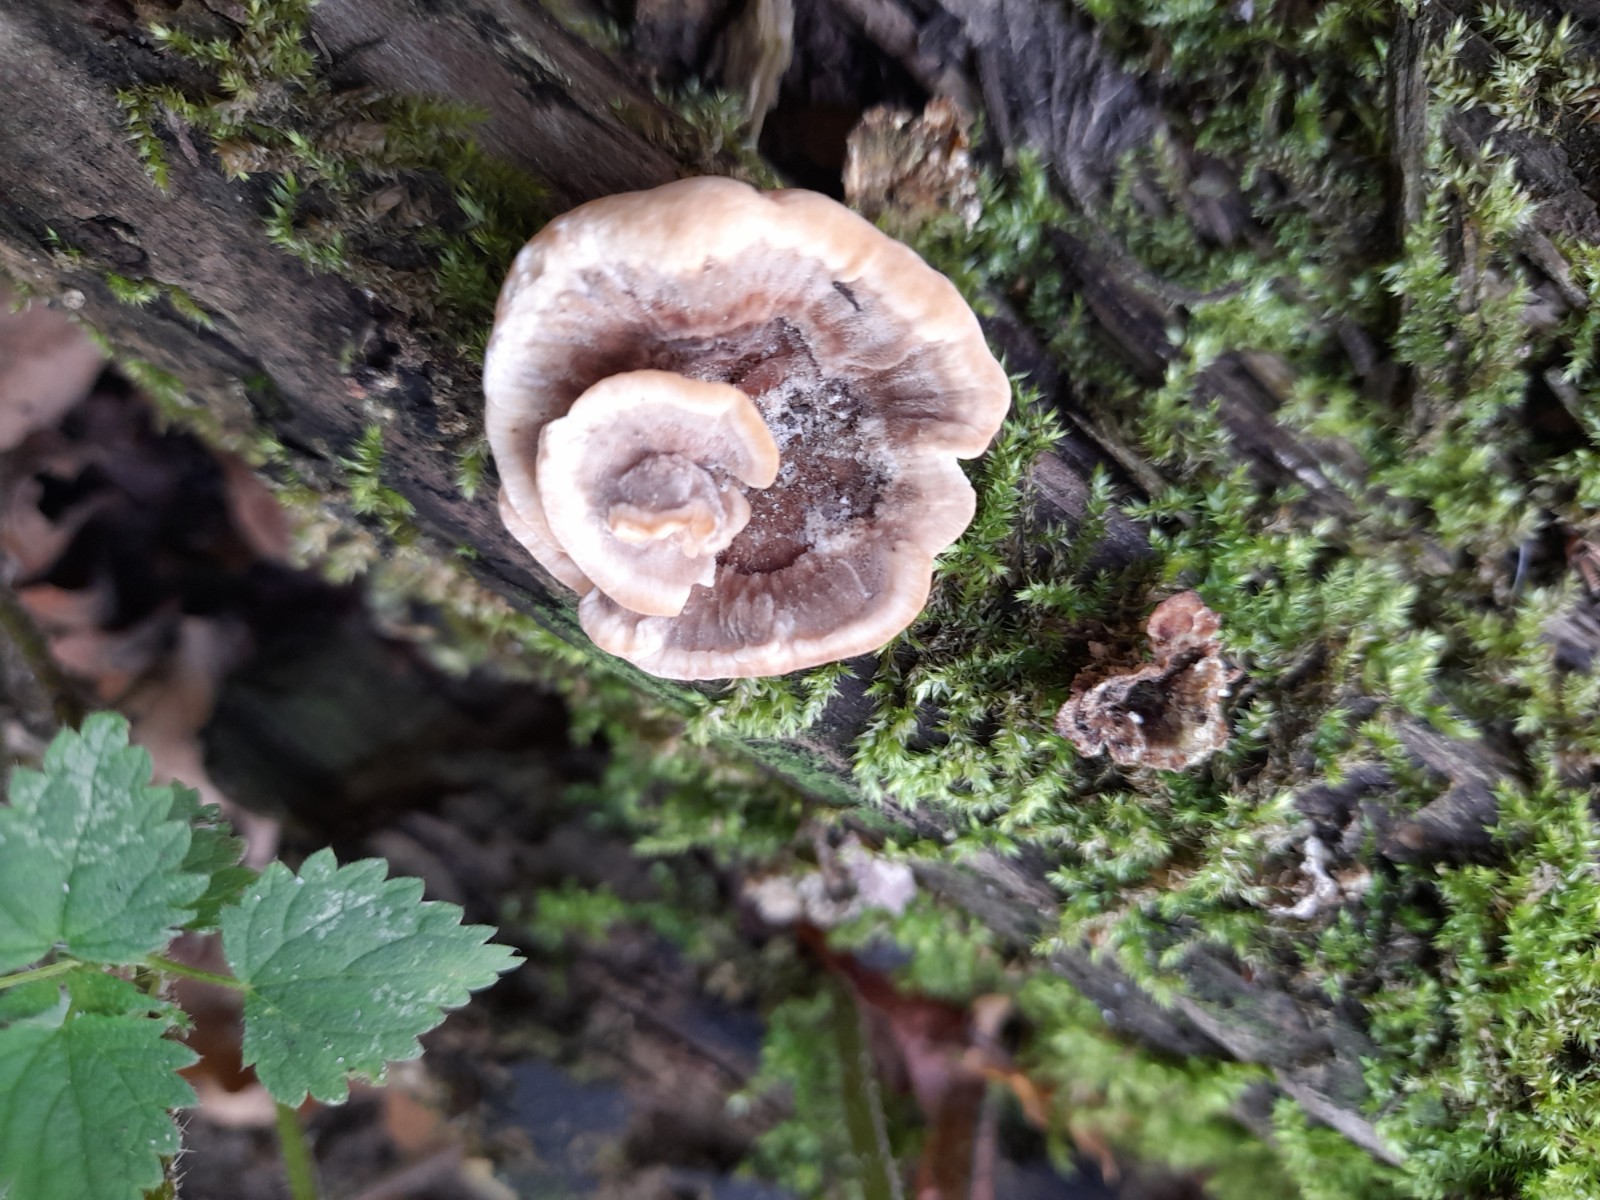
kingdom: Fungi
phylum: Basidiomycota
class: Agaricomycetes
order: Polyporales
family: Polyporaceae
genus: Trametes
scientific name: Trametes versicolor
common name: broget læderporesvamp
